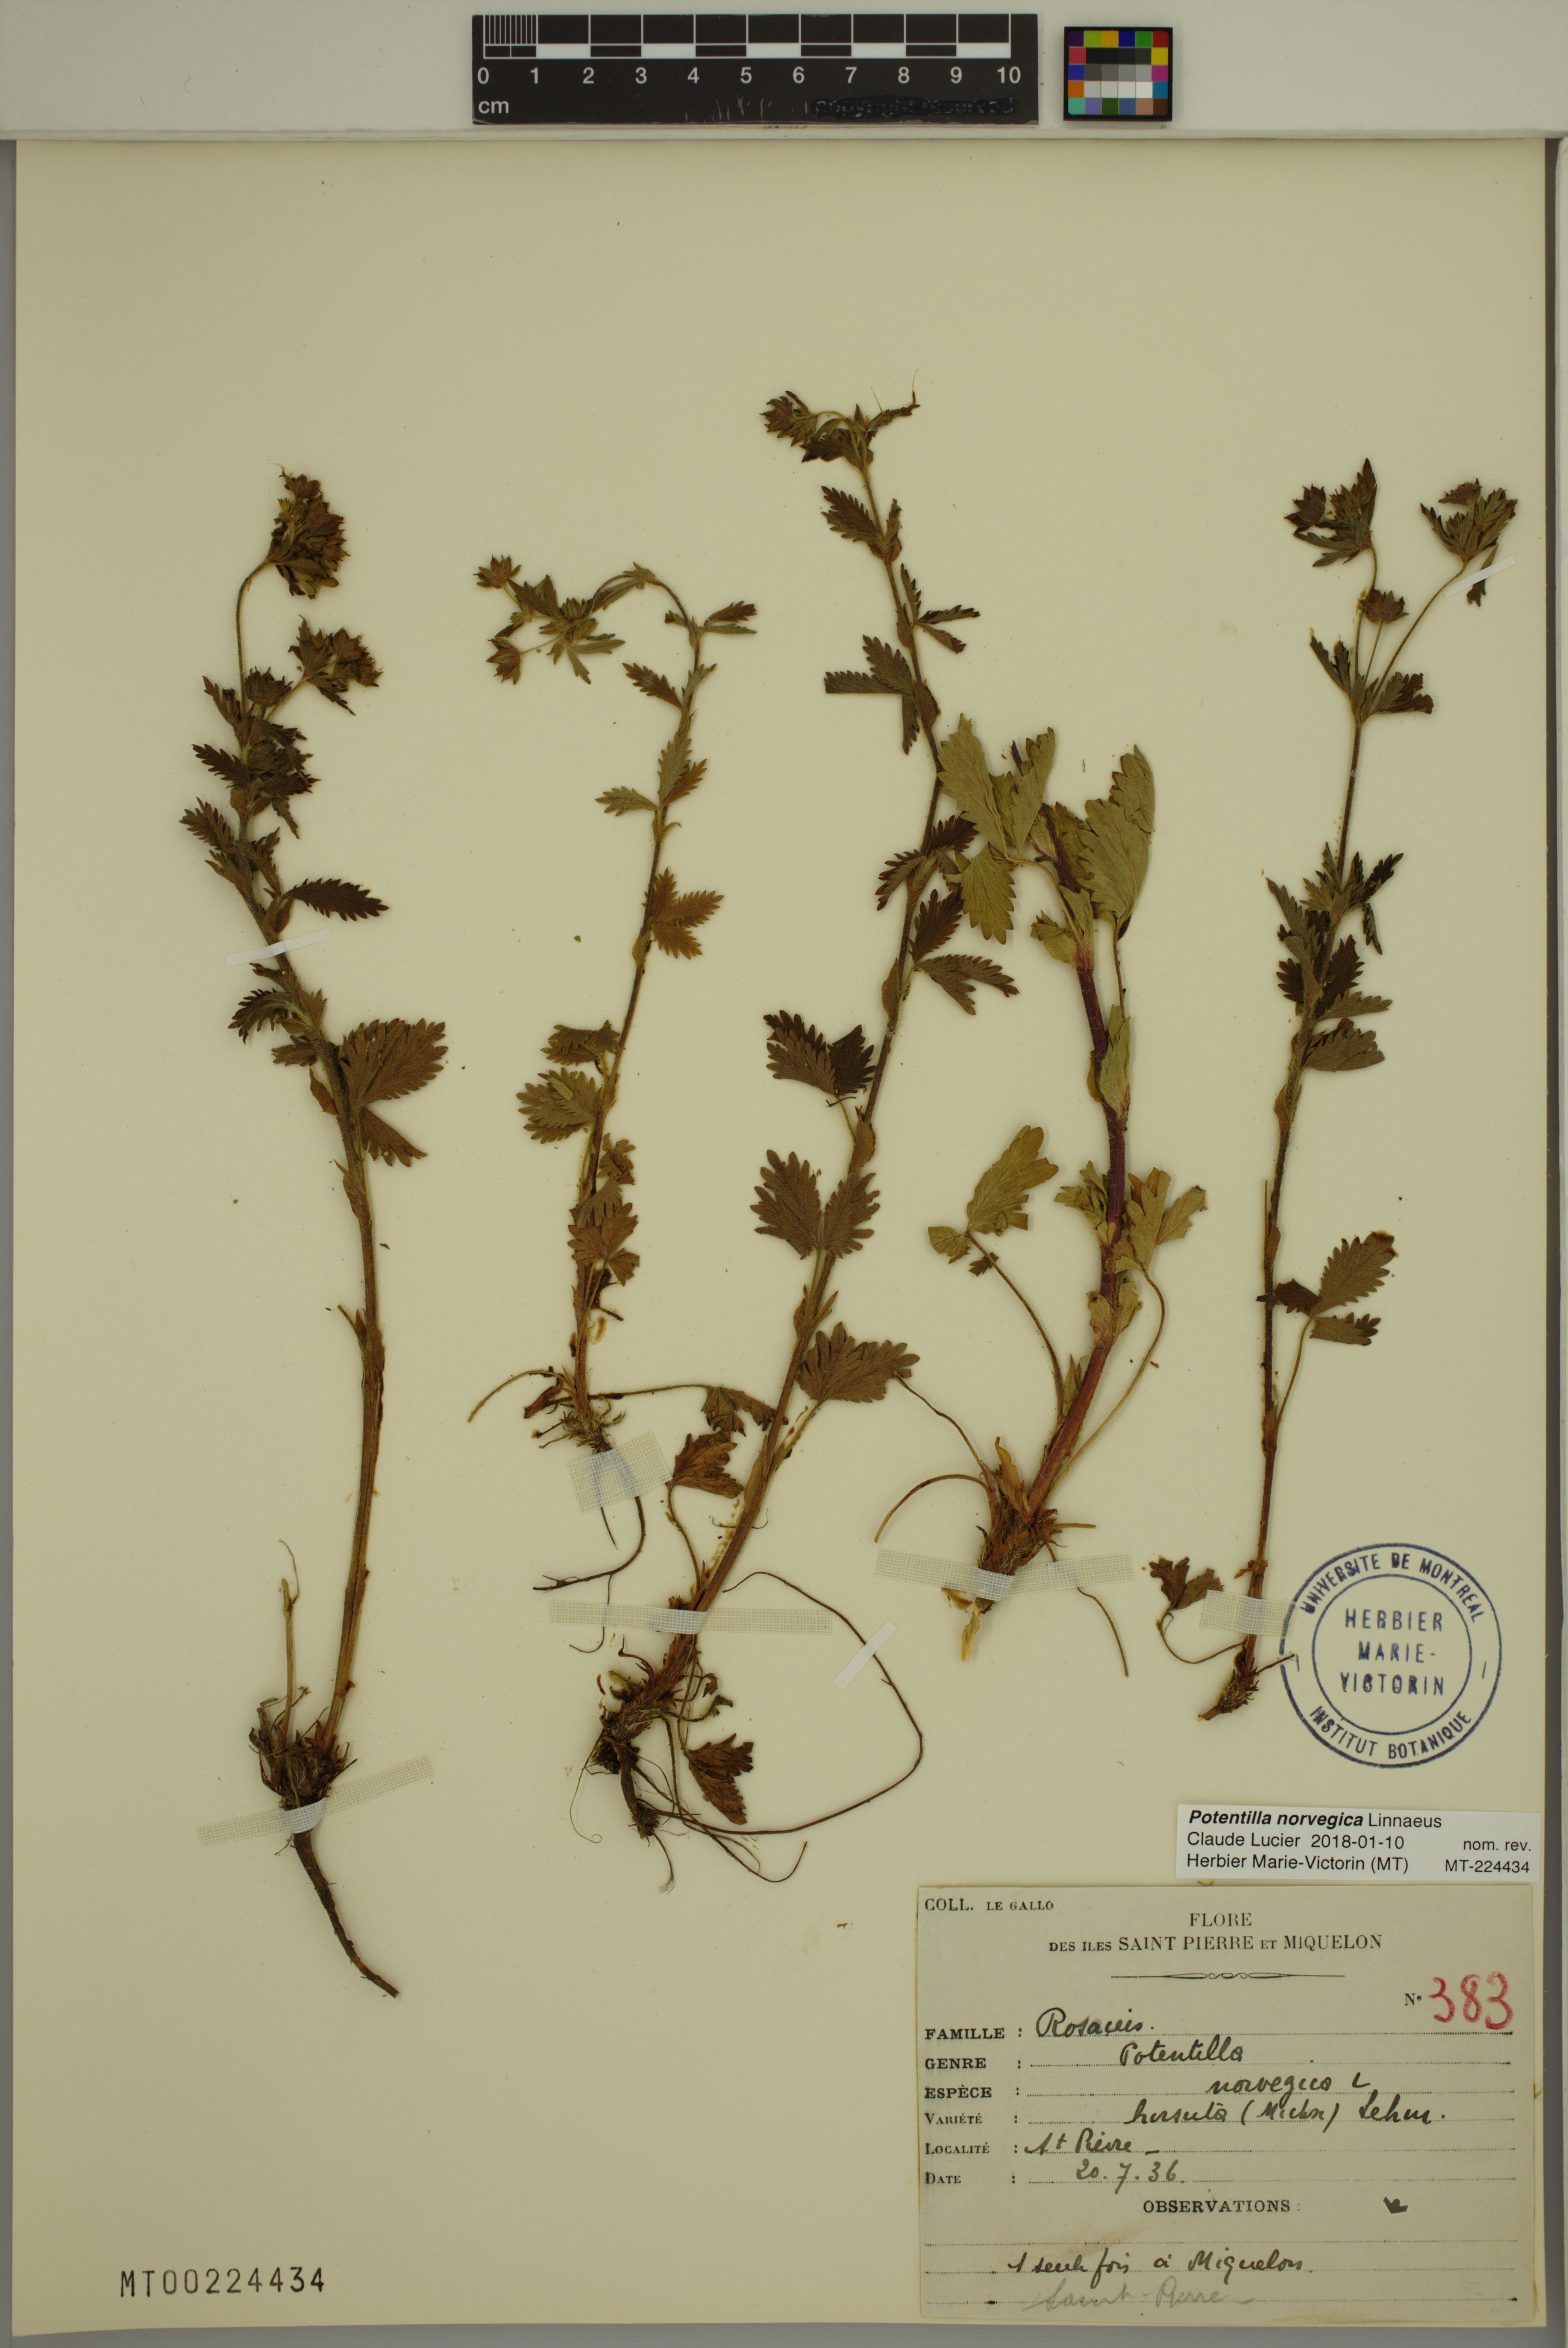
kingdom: Plantae
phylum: Tracheophyta
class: Magnoliopsida
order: Rosales
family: Rosaceae
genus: Potentilla
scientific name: Potentilla norvegica
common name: Ternate-leaved cinquefoil
